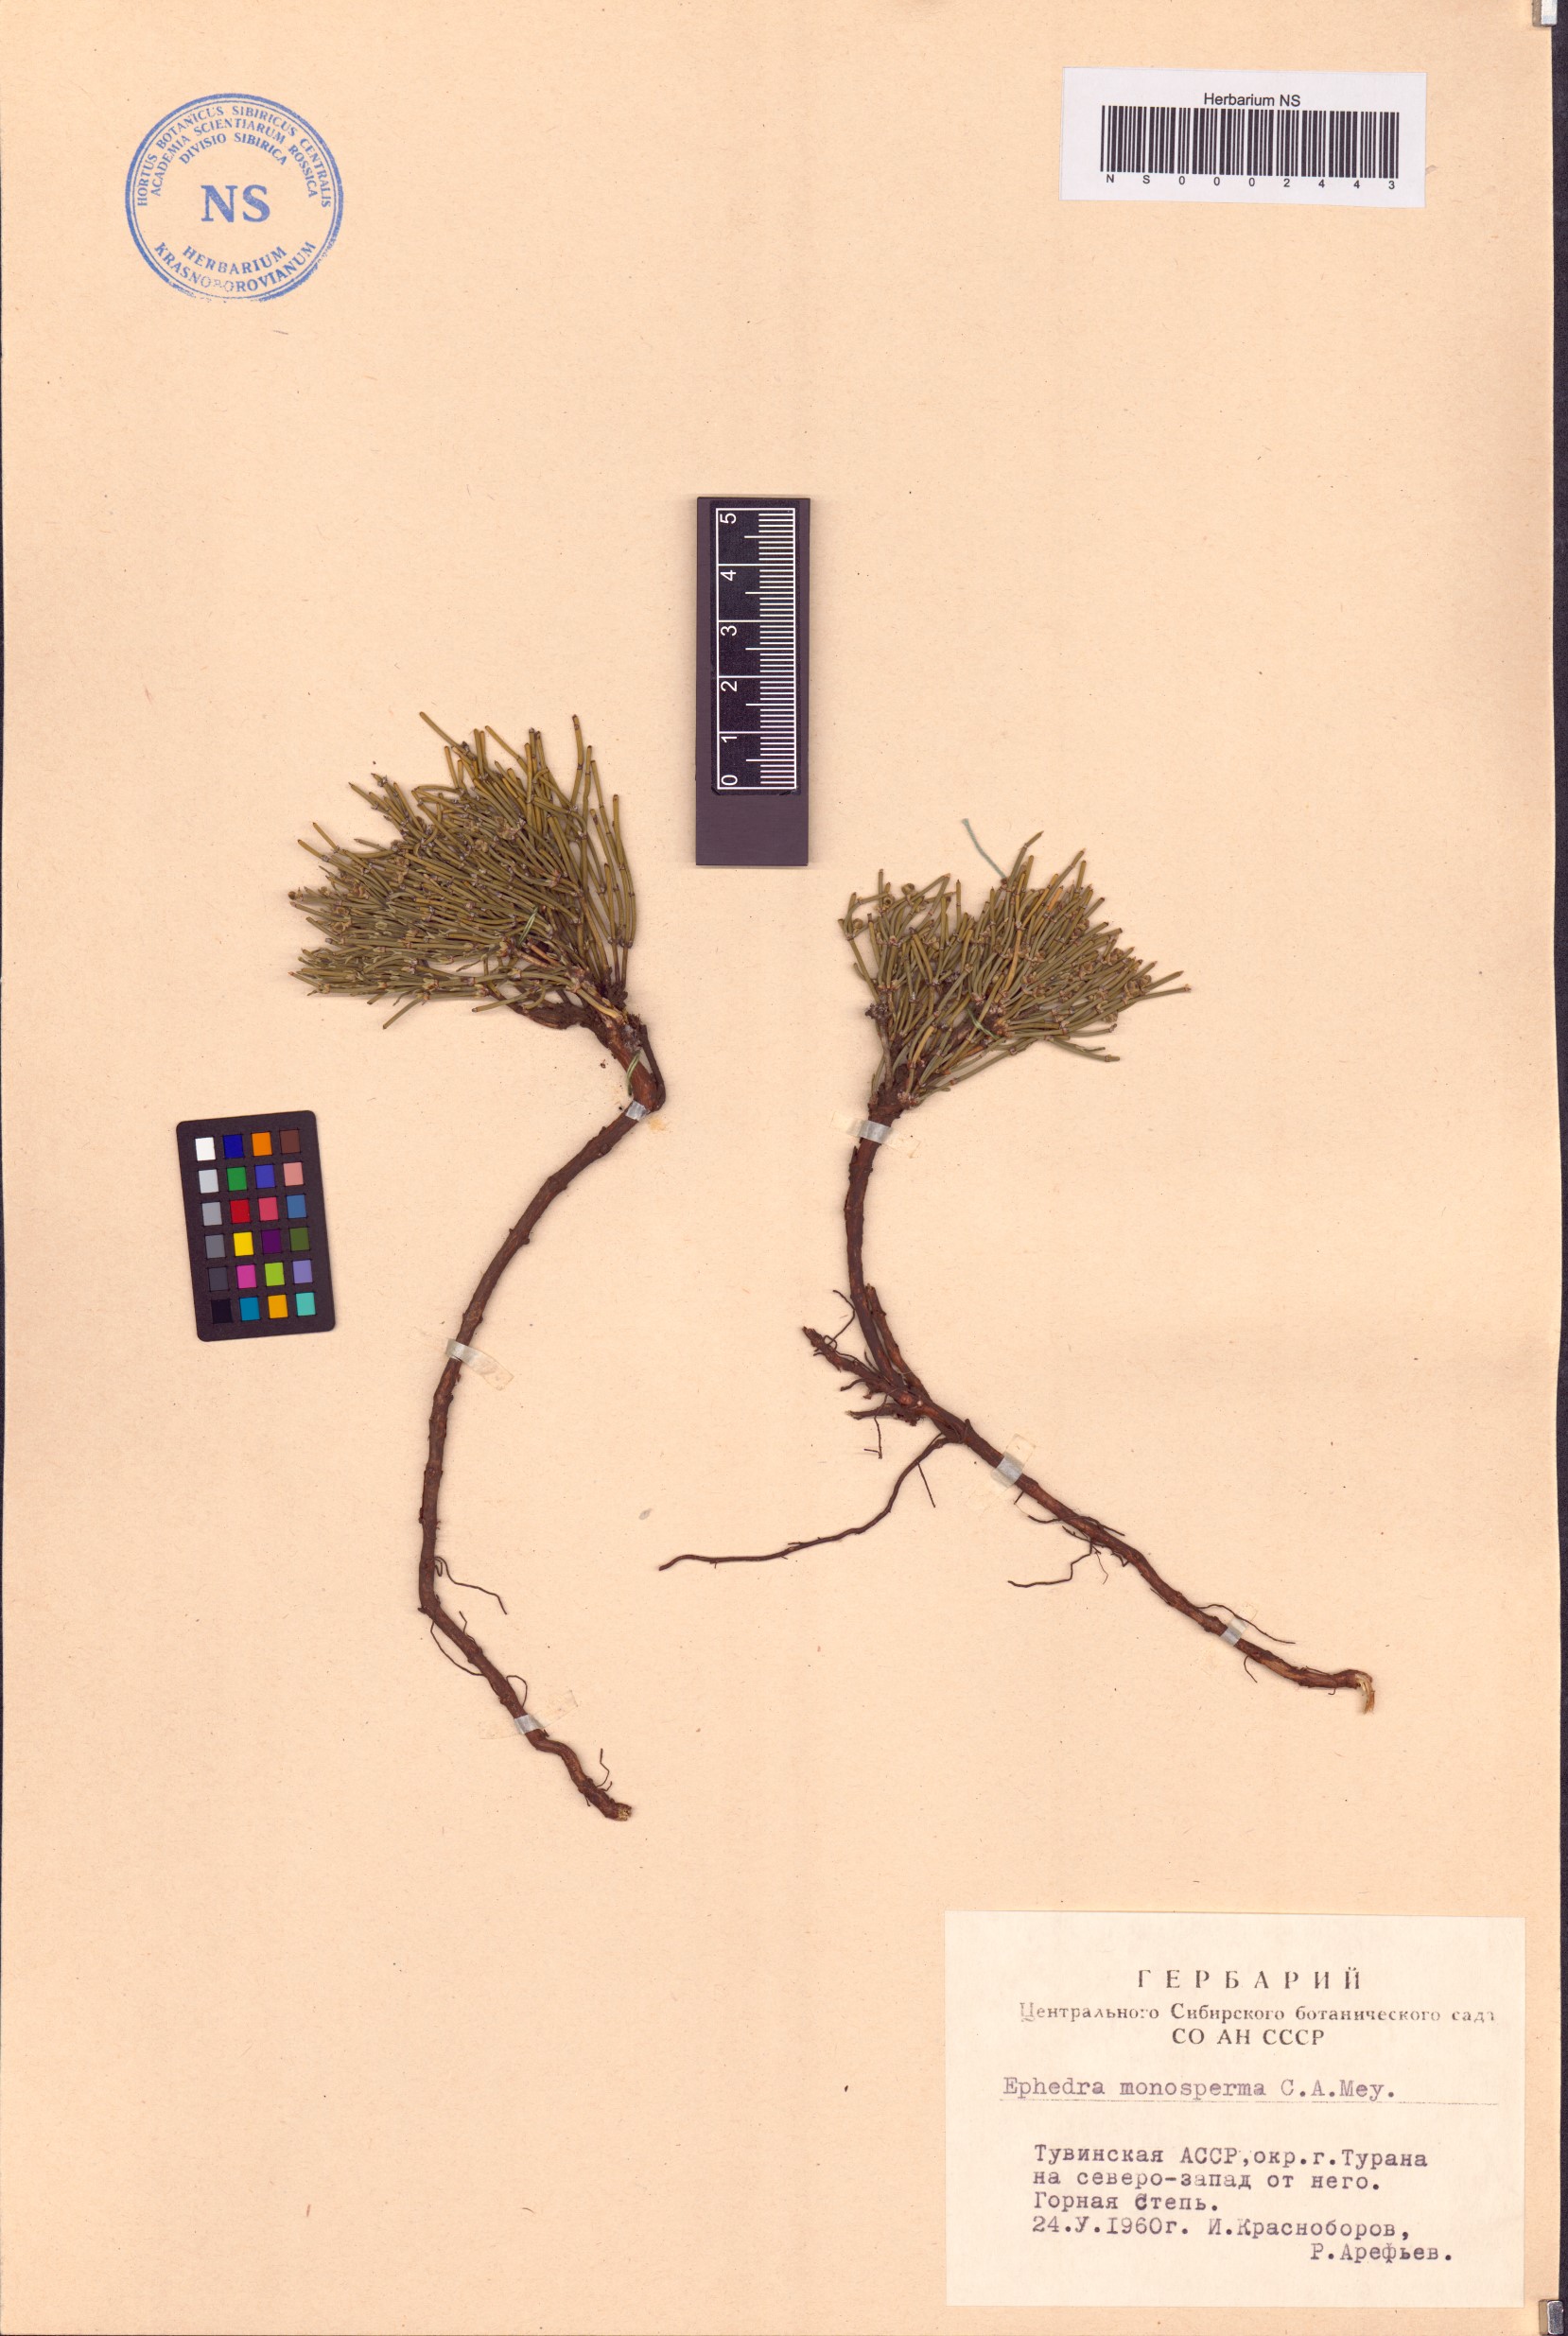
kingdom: Plantae
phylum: Tracheophyta
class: Gnetopsida
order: Ephedrales
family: Ephedraceae
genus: Ephedra
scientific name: Ephedra monosperma
